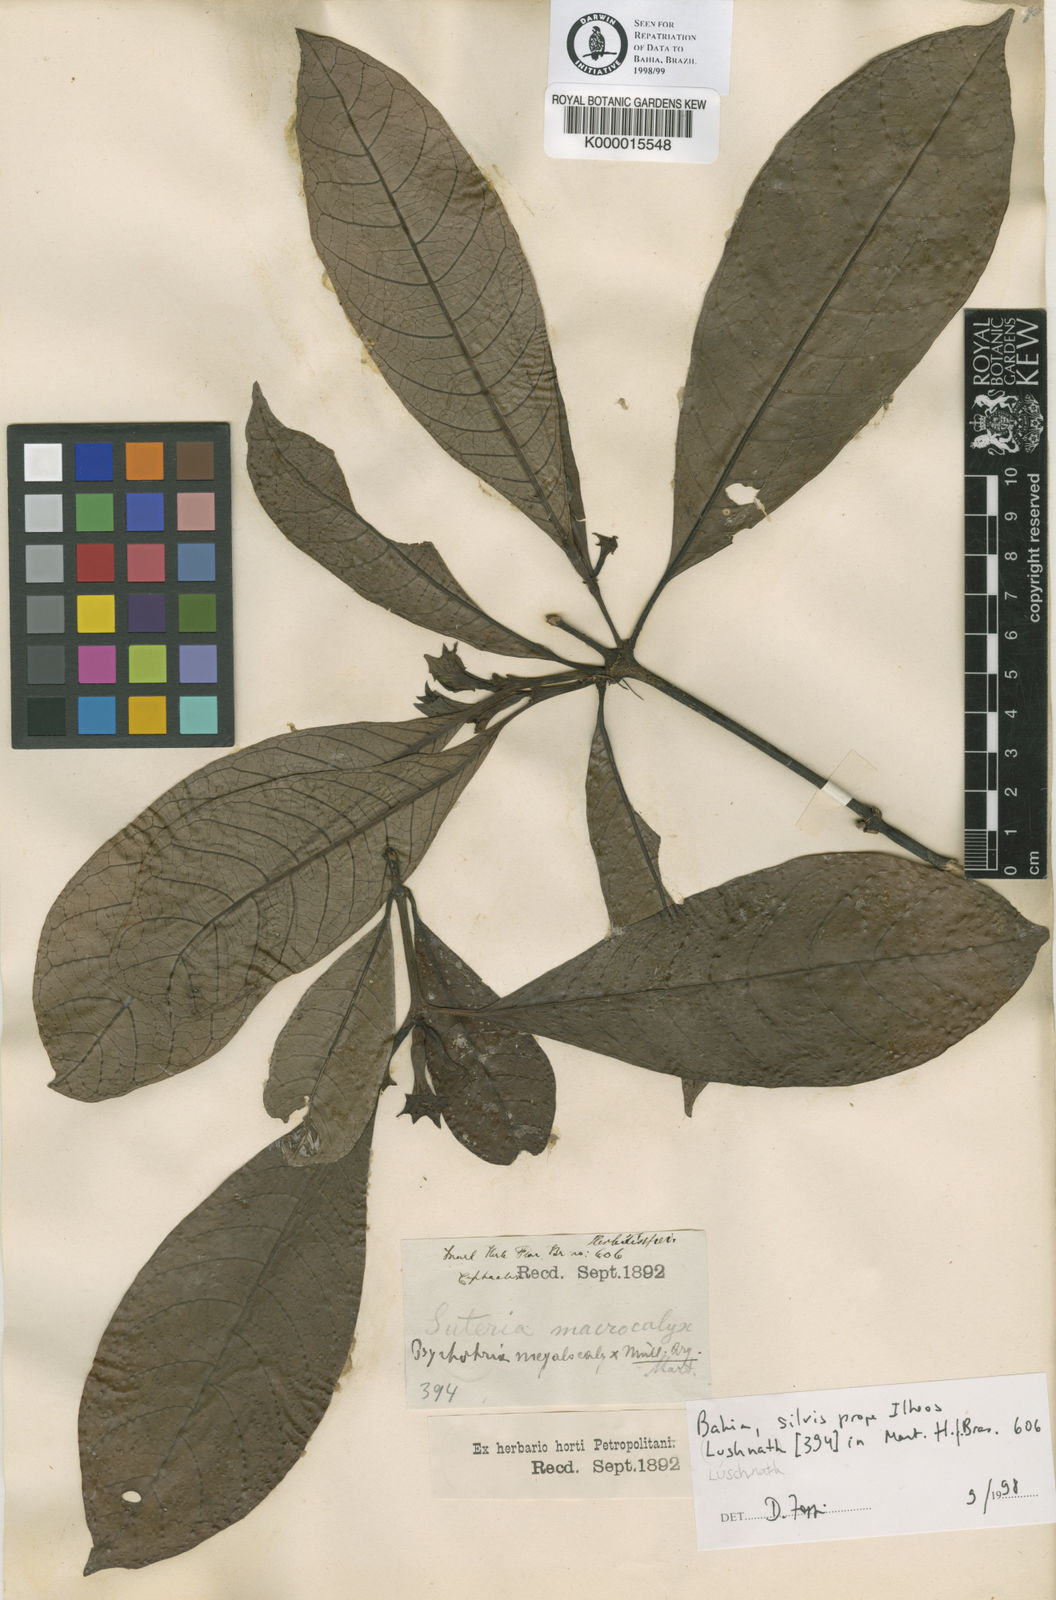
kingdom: Plantae
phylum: Tracheophyta
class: Magnoliopsida
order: Gentianales
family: Rubiaceae
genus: Psychotria
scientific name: Psychotria
